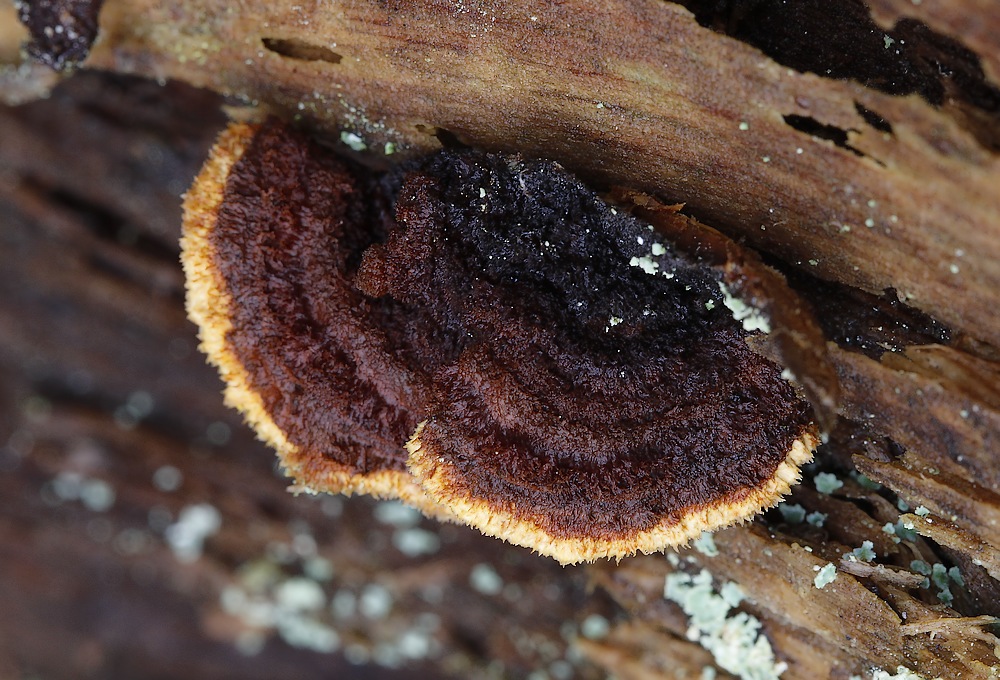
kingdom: Fungi
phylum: Basidiomycota
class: Agaricomycetes
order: Gloeophyllales
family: Gloeophyllaceae
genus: Gloeophyllum
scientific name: Gloeophyllum sepiarium
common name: fyrre-korkhat
